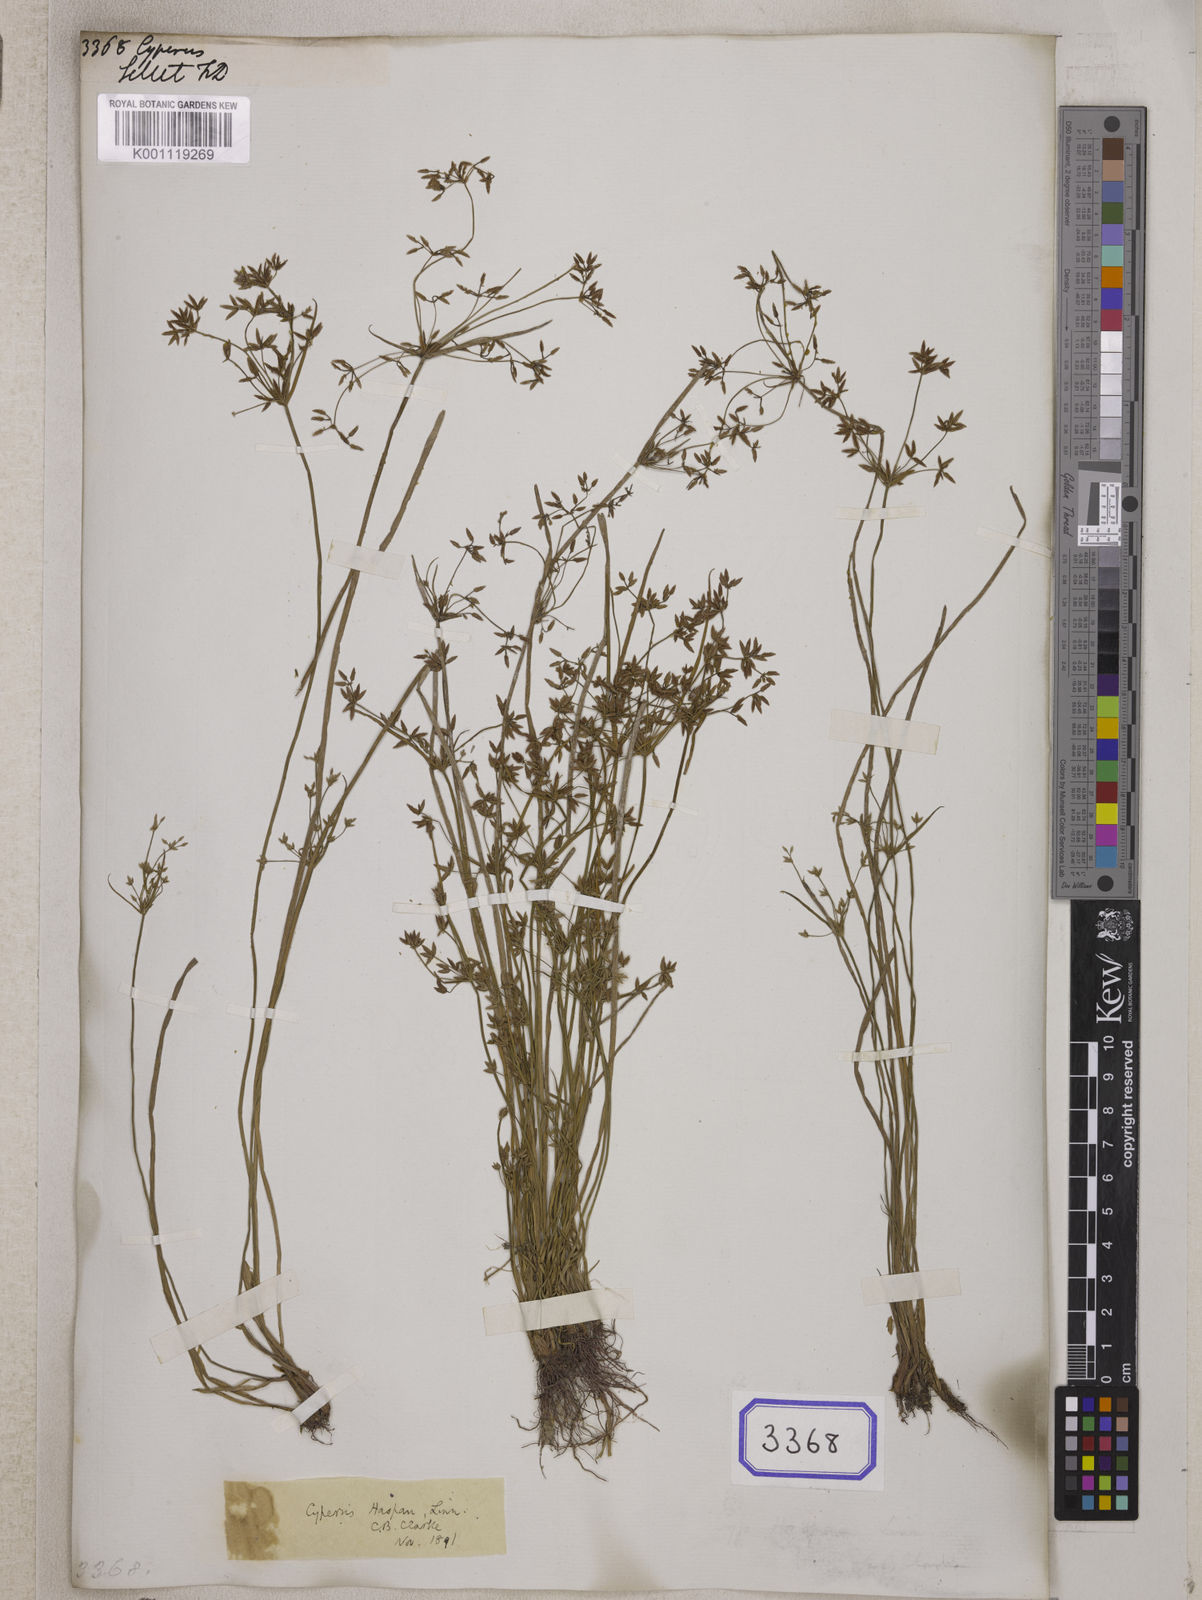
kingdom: Plantae
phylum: Tracheophyta
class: Liliopsida
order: Poales
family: Cyperaceae
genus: Cyperus
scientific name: Cyperus
